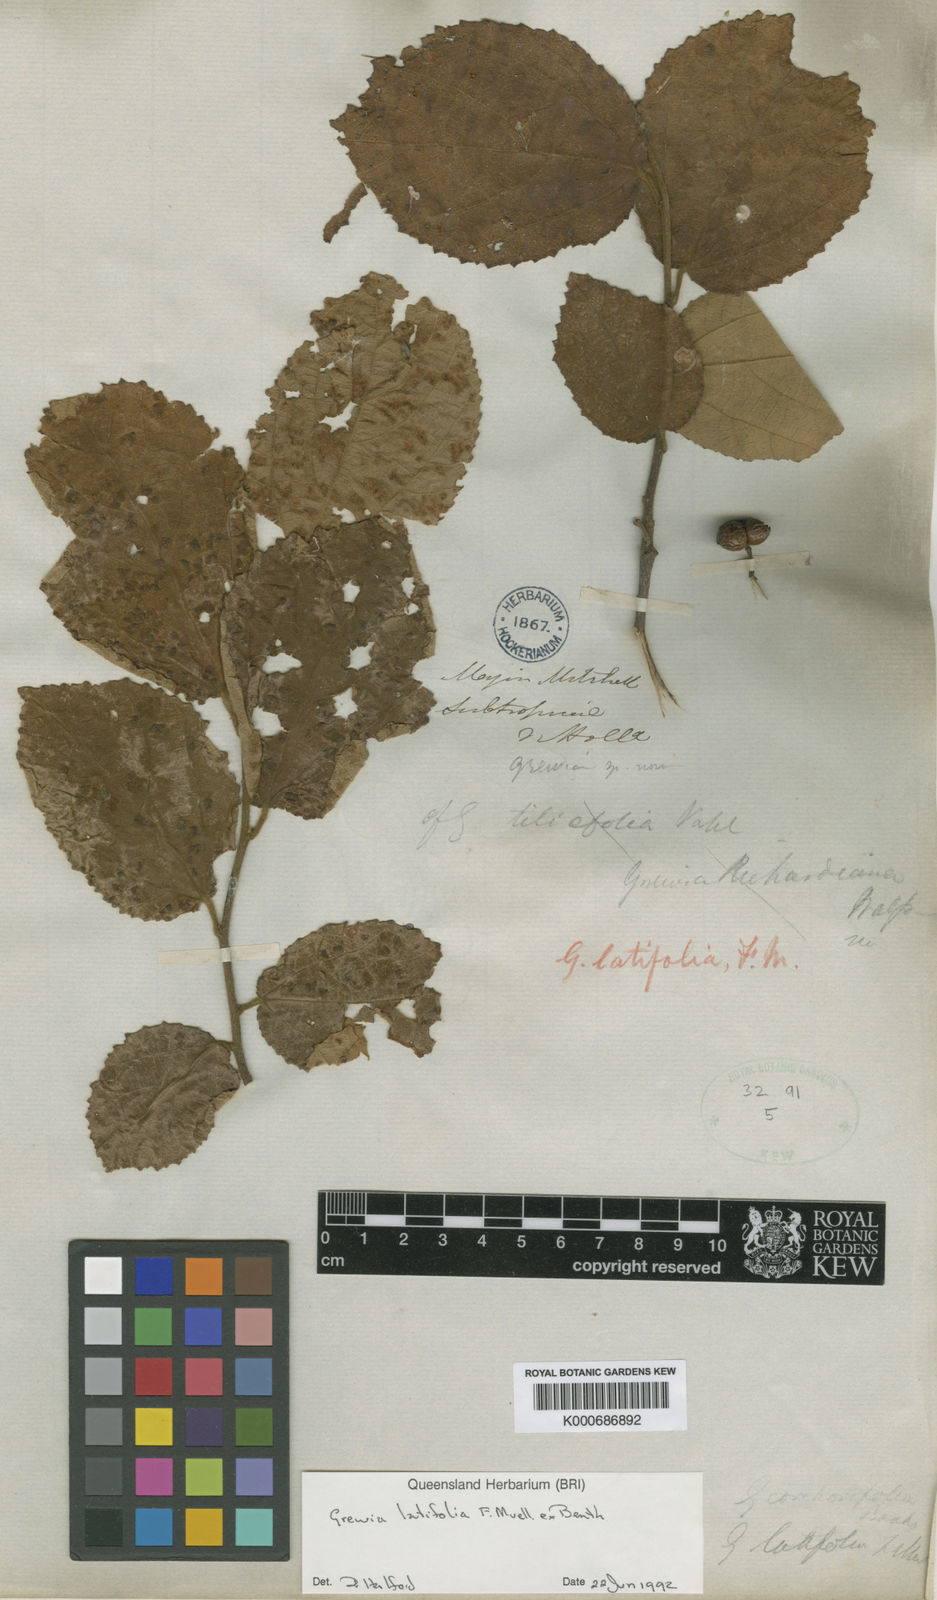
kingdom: Plantae
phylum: Tracheophyta
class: Magnoliopsida
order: Malvales
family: Malvaceae
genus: Grewia
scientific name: Grewia apetala
